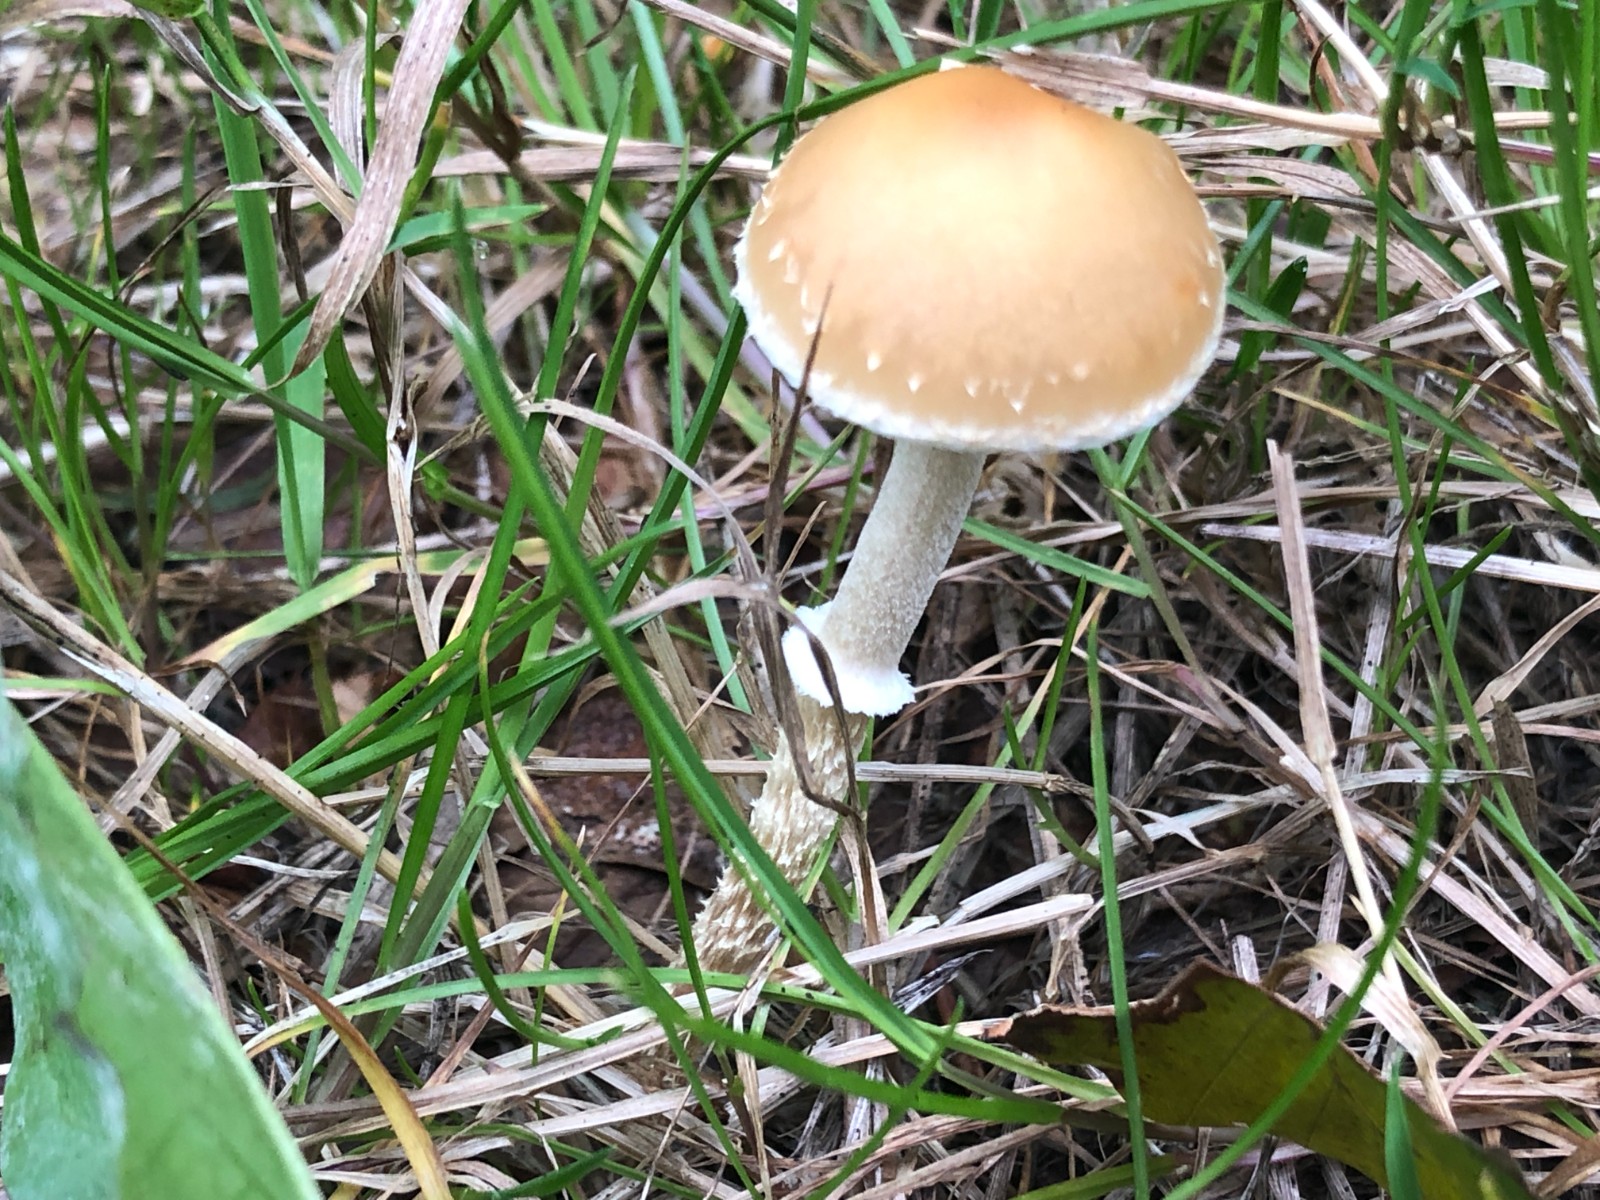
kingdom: Fungi
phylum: Basidiomycota
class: Agaricomycetes
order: Agaricales
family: Strophariaceae
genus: Leratiomyces
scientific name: Leratiomyces squamosus
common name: skællet bredblad
